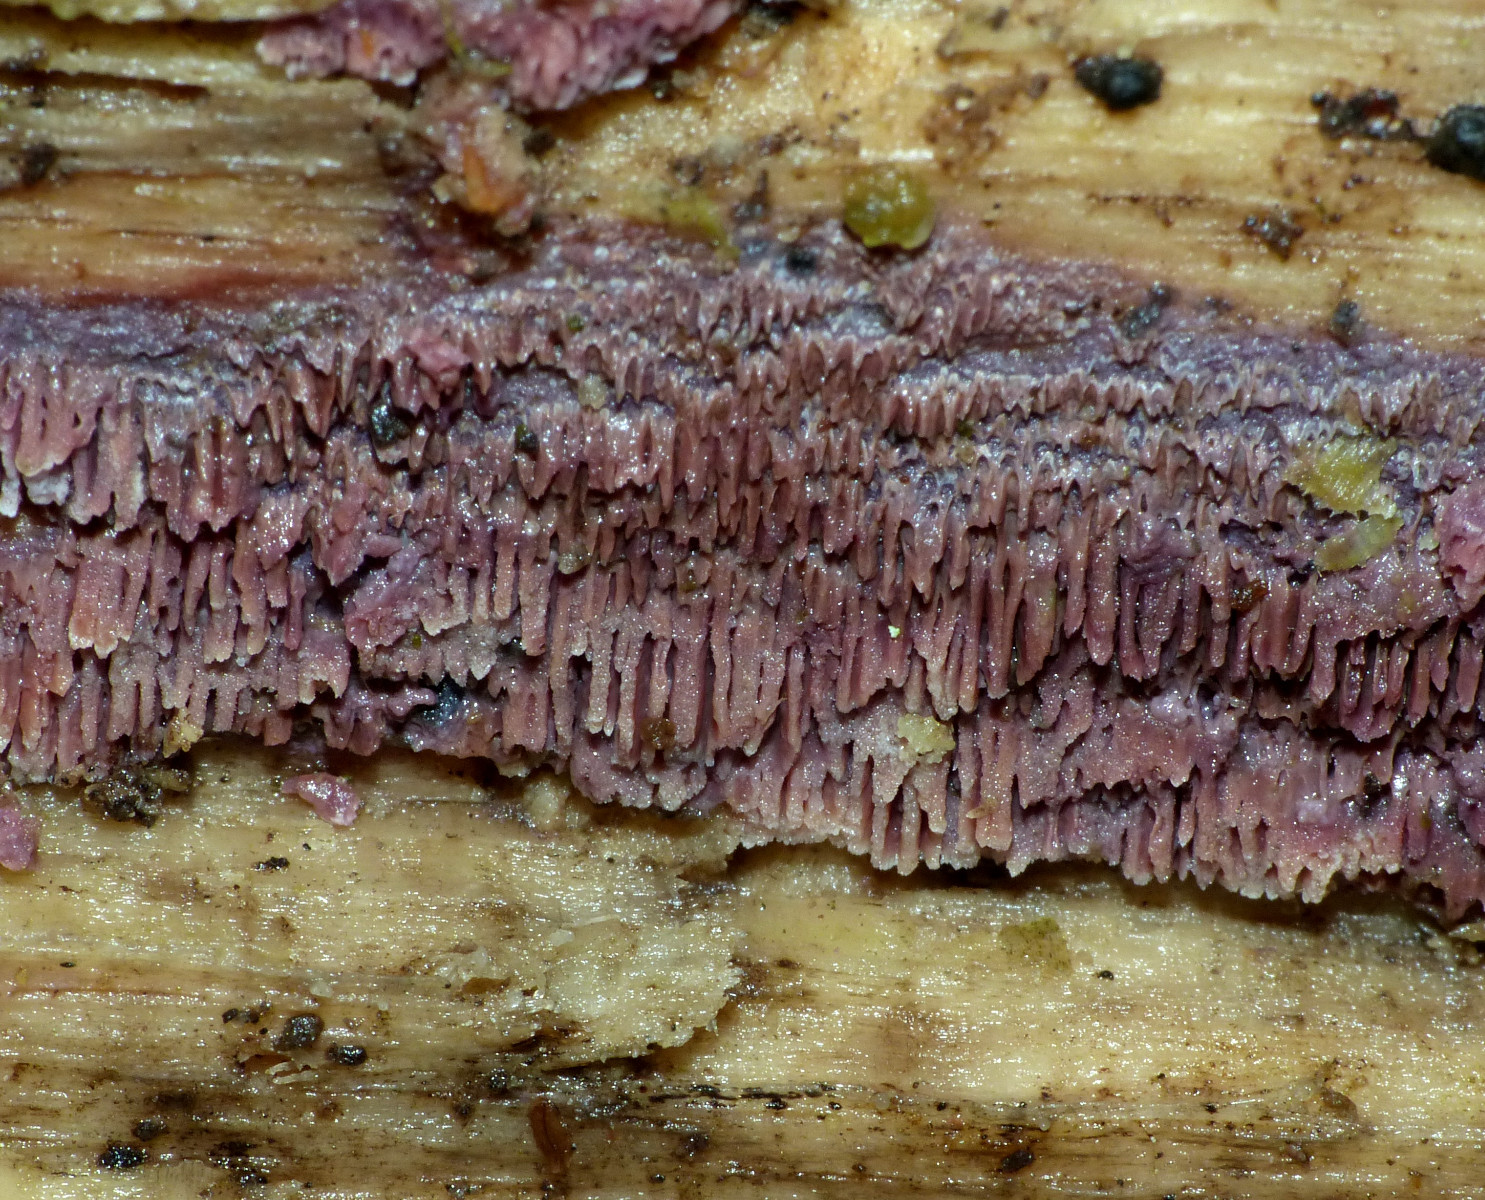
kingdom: Fungi
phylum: Basidiomycota
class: Agaricomycetes
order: Polyporales
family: Irpicaceae
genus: Ceriporia
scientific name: Ceriporia excelsa
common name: lilla voksporesvamp
